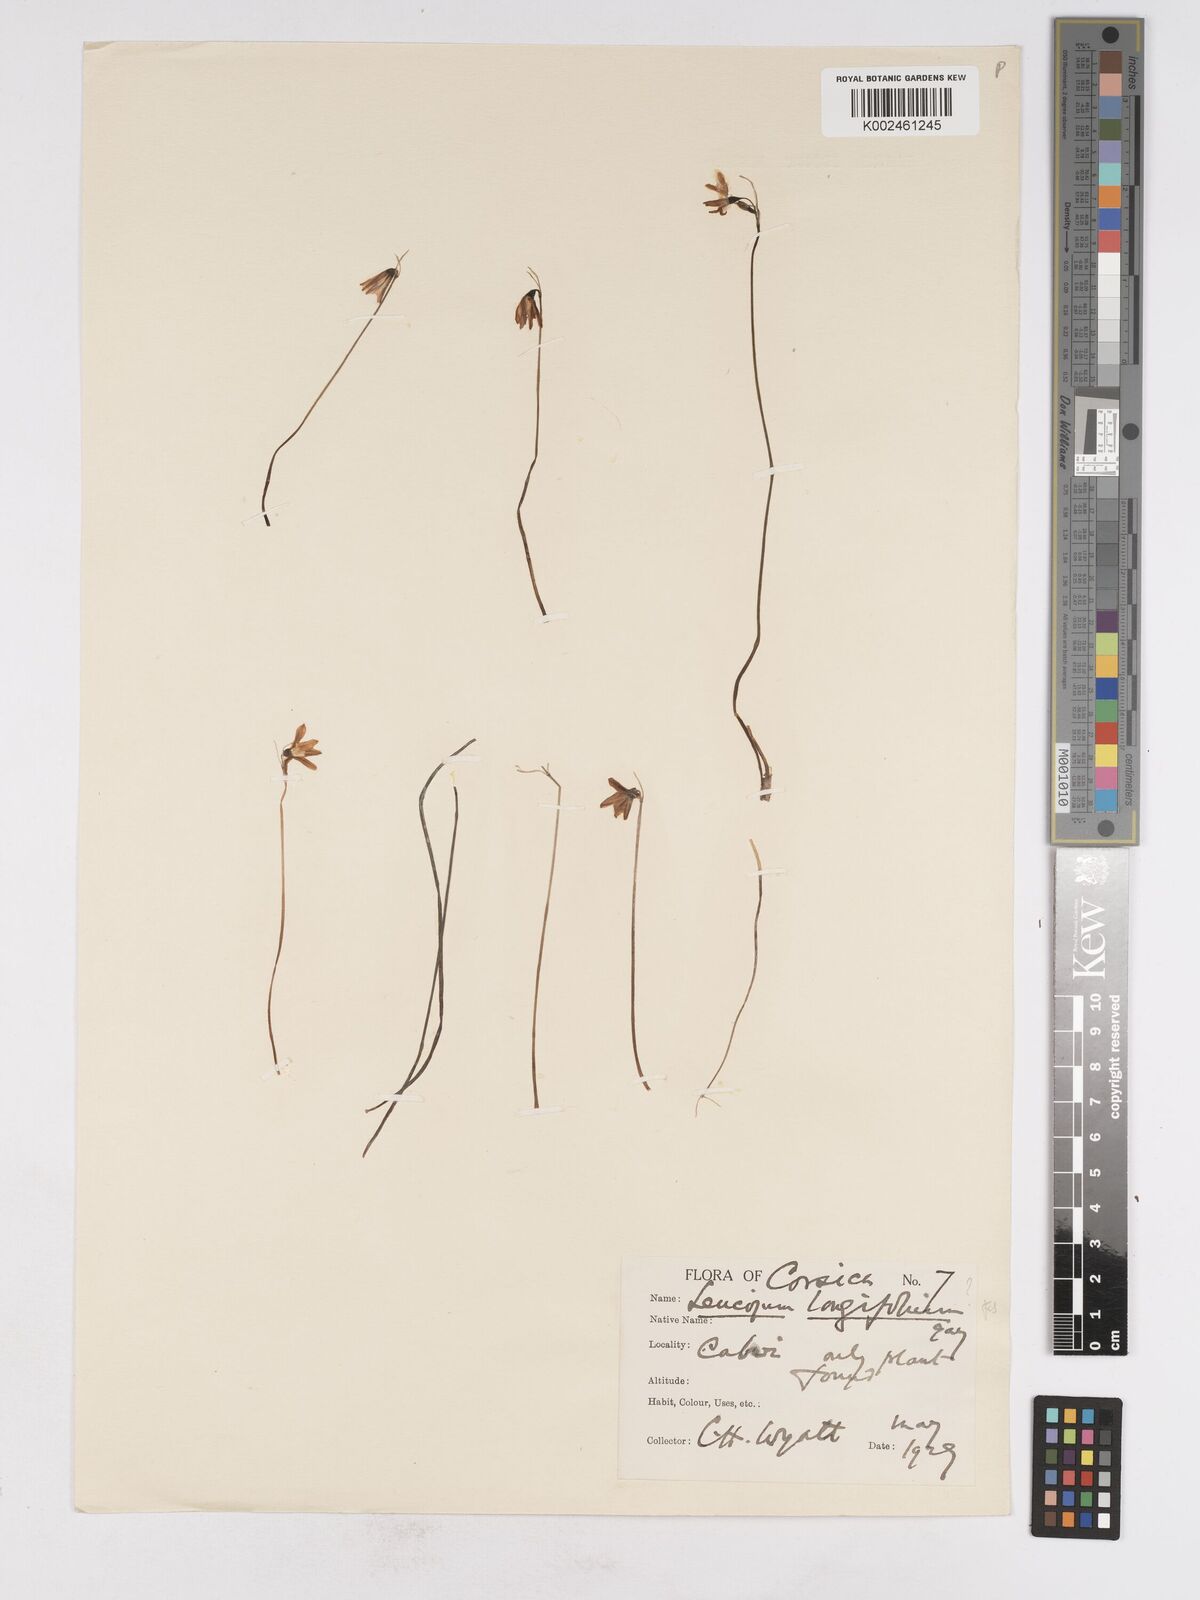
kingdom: Plantae
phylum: Tracheophyta
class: Liliopsida
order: Asparagales
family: Amaryllidaceae
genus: Acis
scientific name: Acis longifolia
